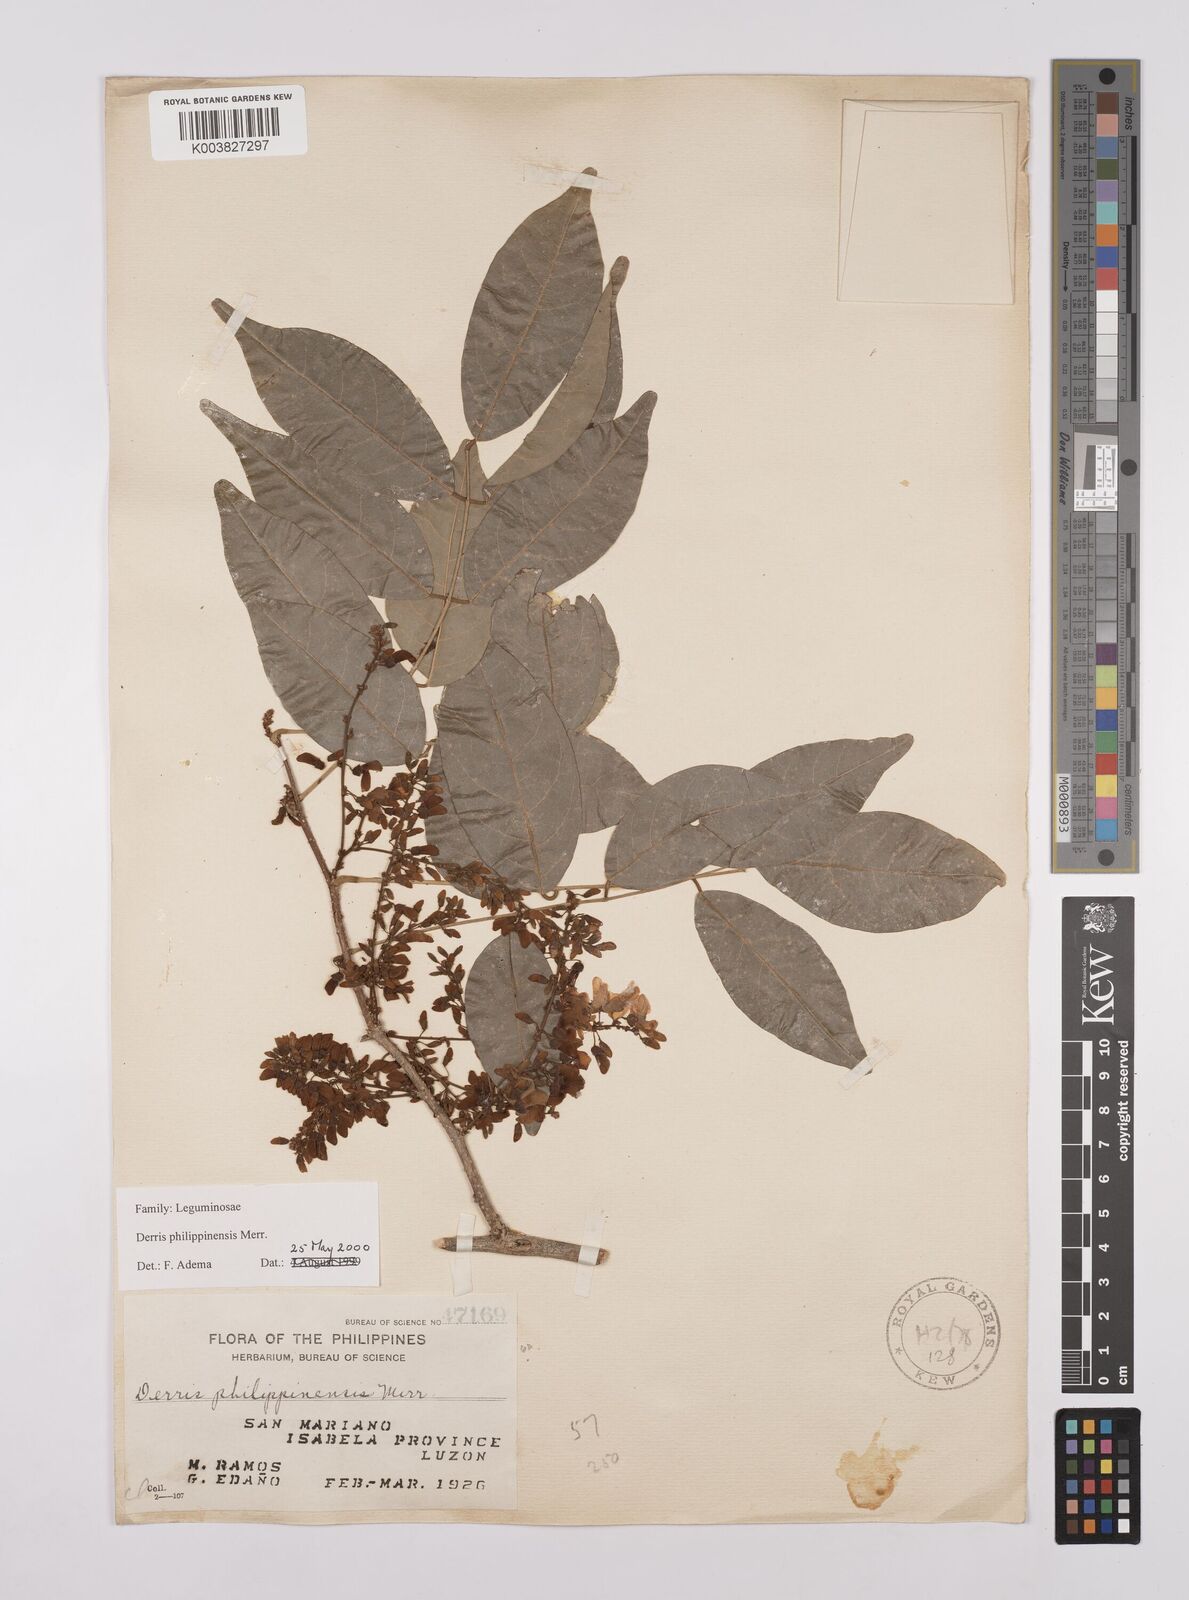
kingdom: Plantae
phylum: Tracheophyta
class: Magnoliopsida
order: Fabales
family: Fabaceae
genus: Brachypterum
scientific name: Brachypterum philippinense
